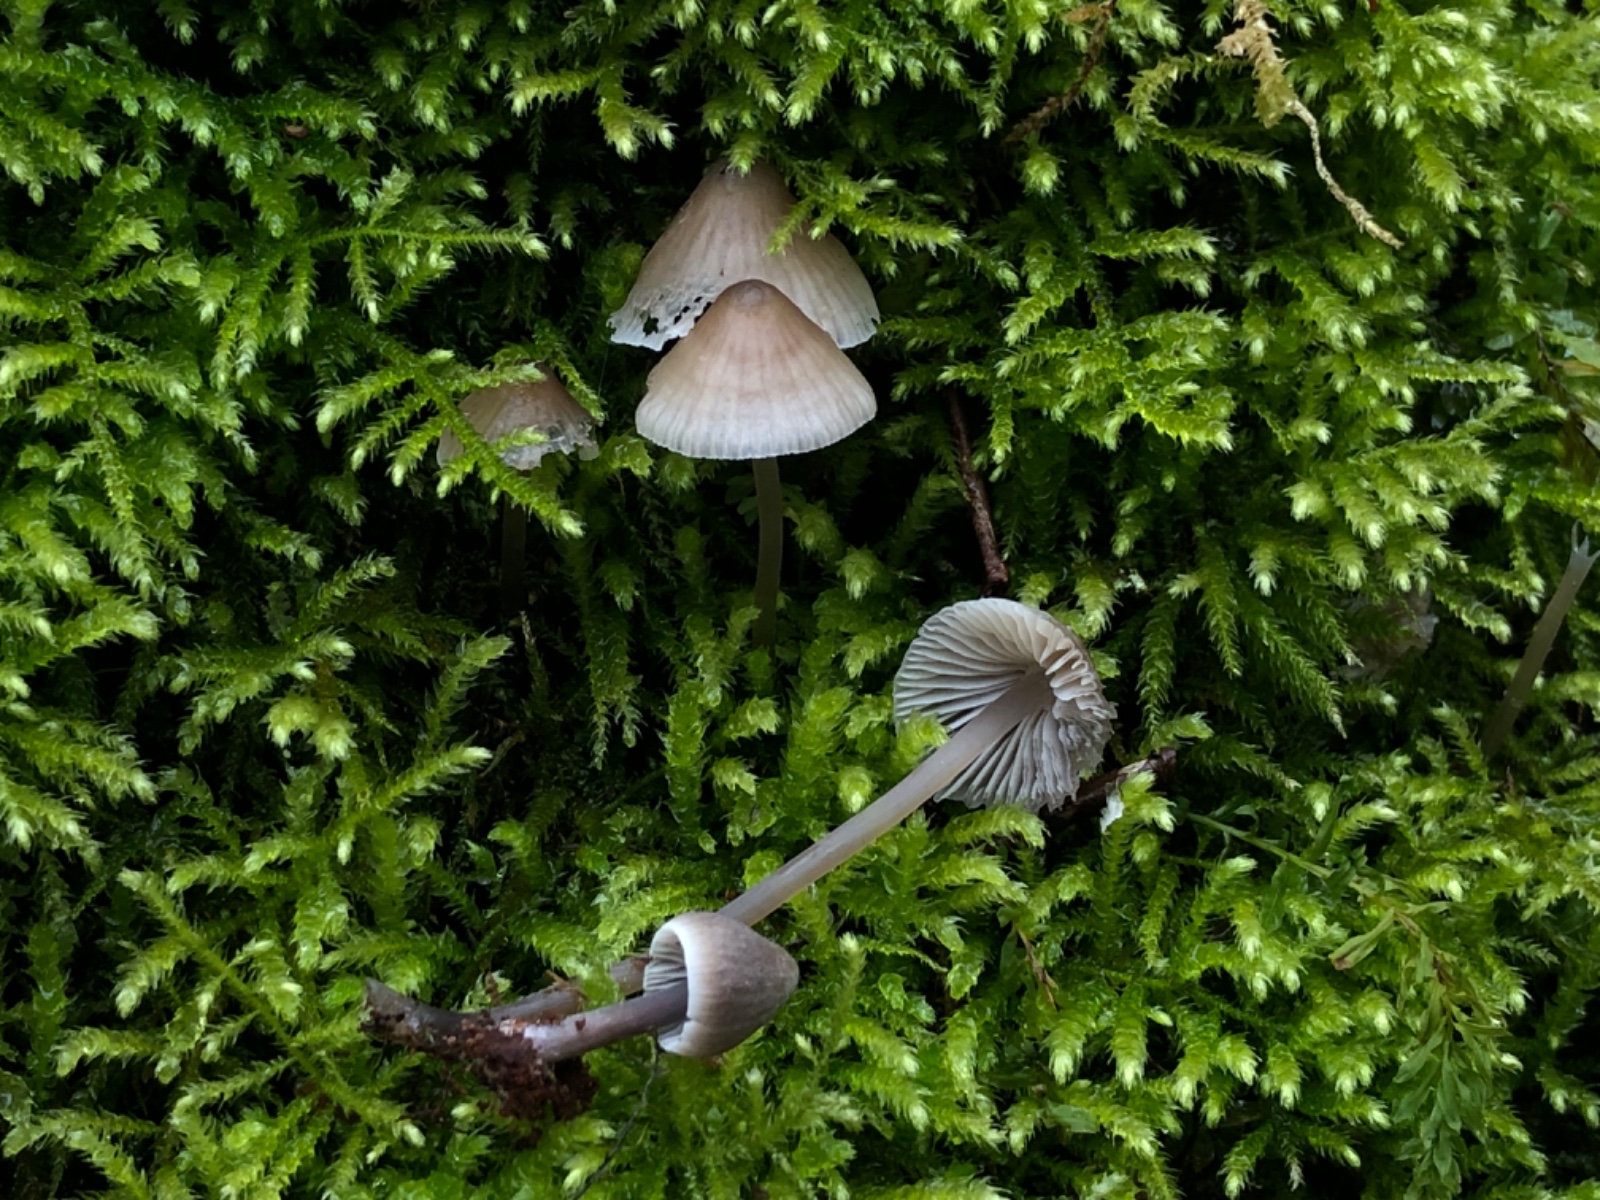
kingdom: Fungi
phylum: Basidiomycota
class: Agaricomycetes
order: Agaricales
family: Mycenaceae
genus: Mycena
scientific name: Mycena abramsii
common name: sommer-huesvamp
